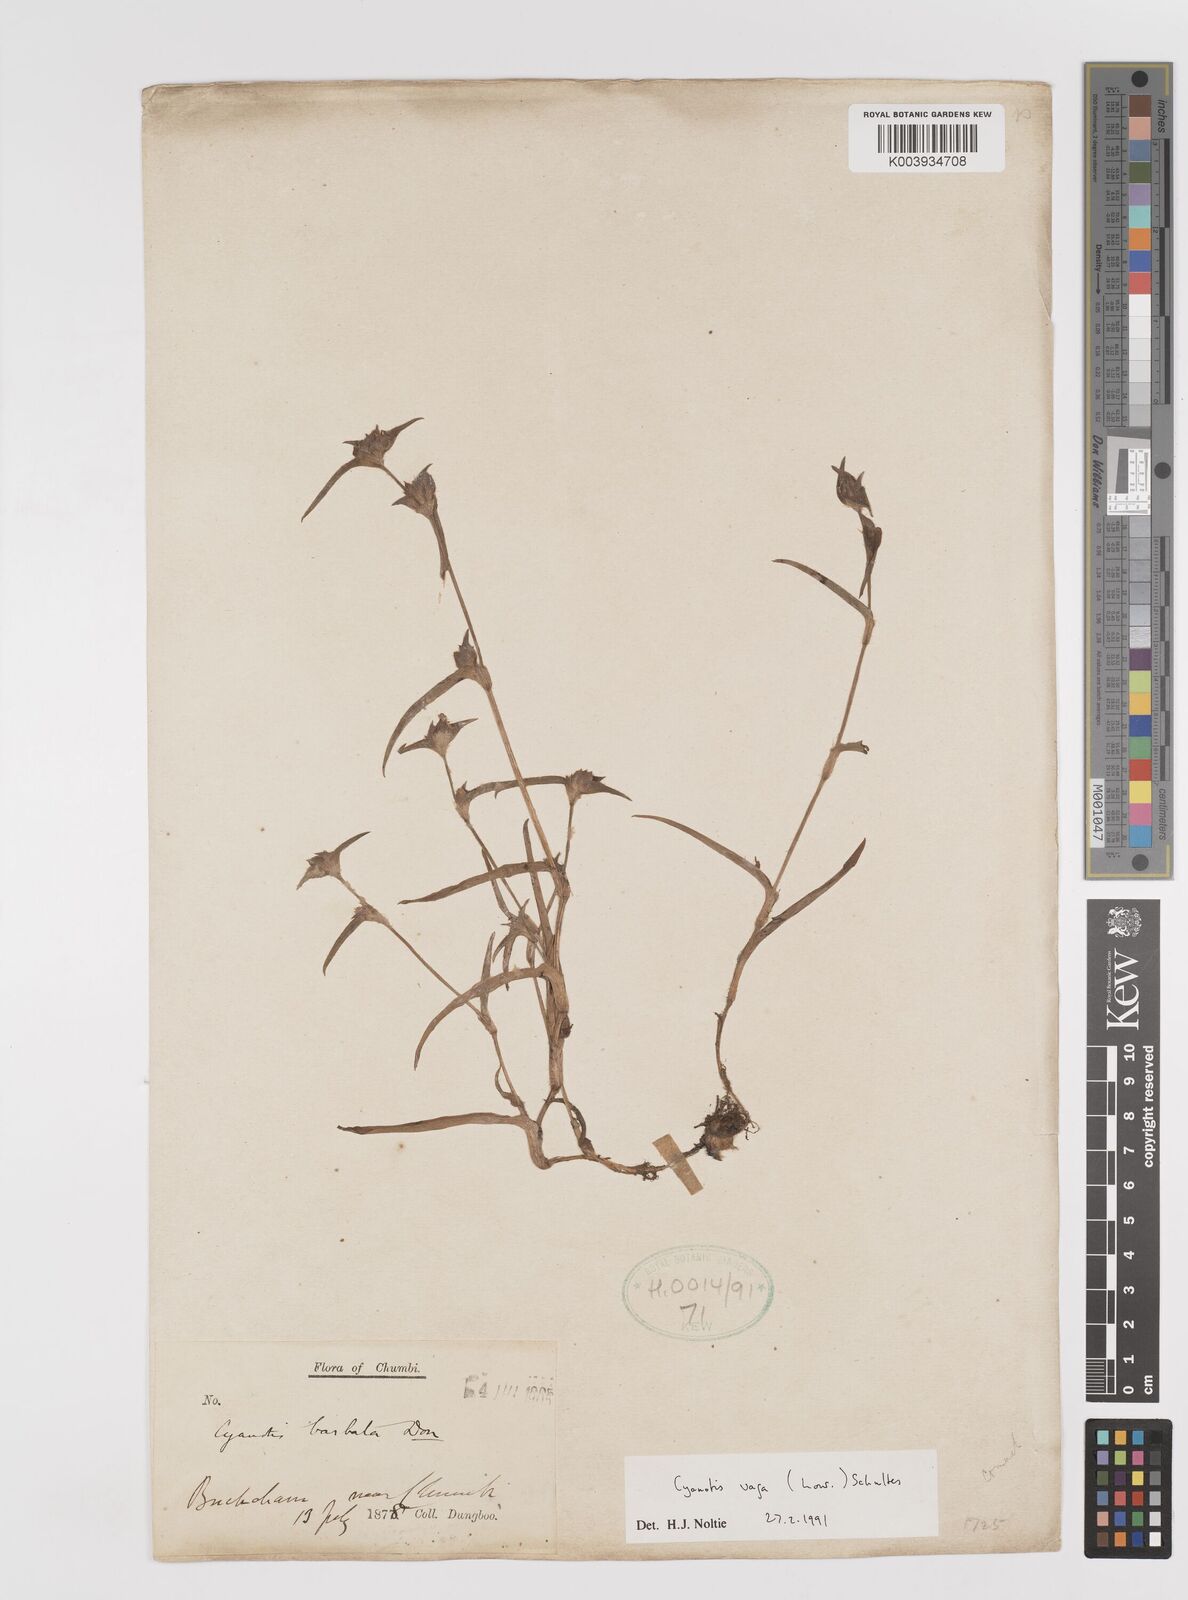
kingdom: Plantae
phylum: Tracheophyta
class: Liliopsida
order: Commelinales
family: Commelinaceae
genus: Cyanotis
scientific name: Cyanotis vaga
